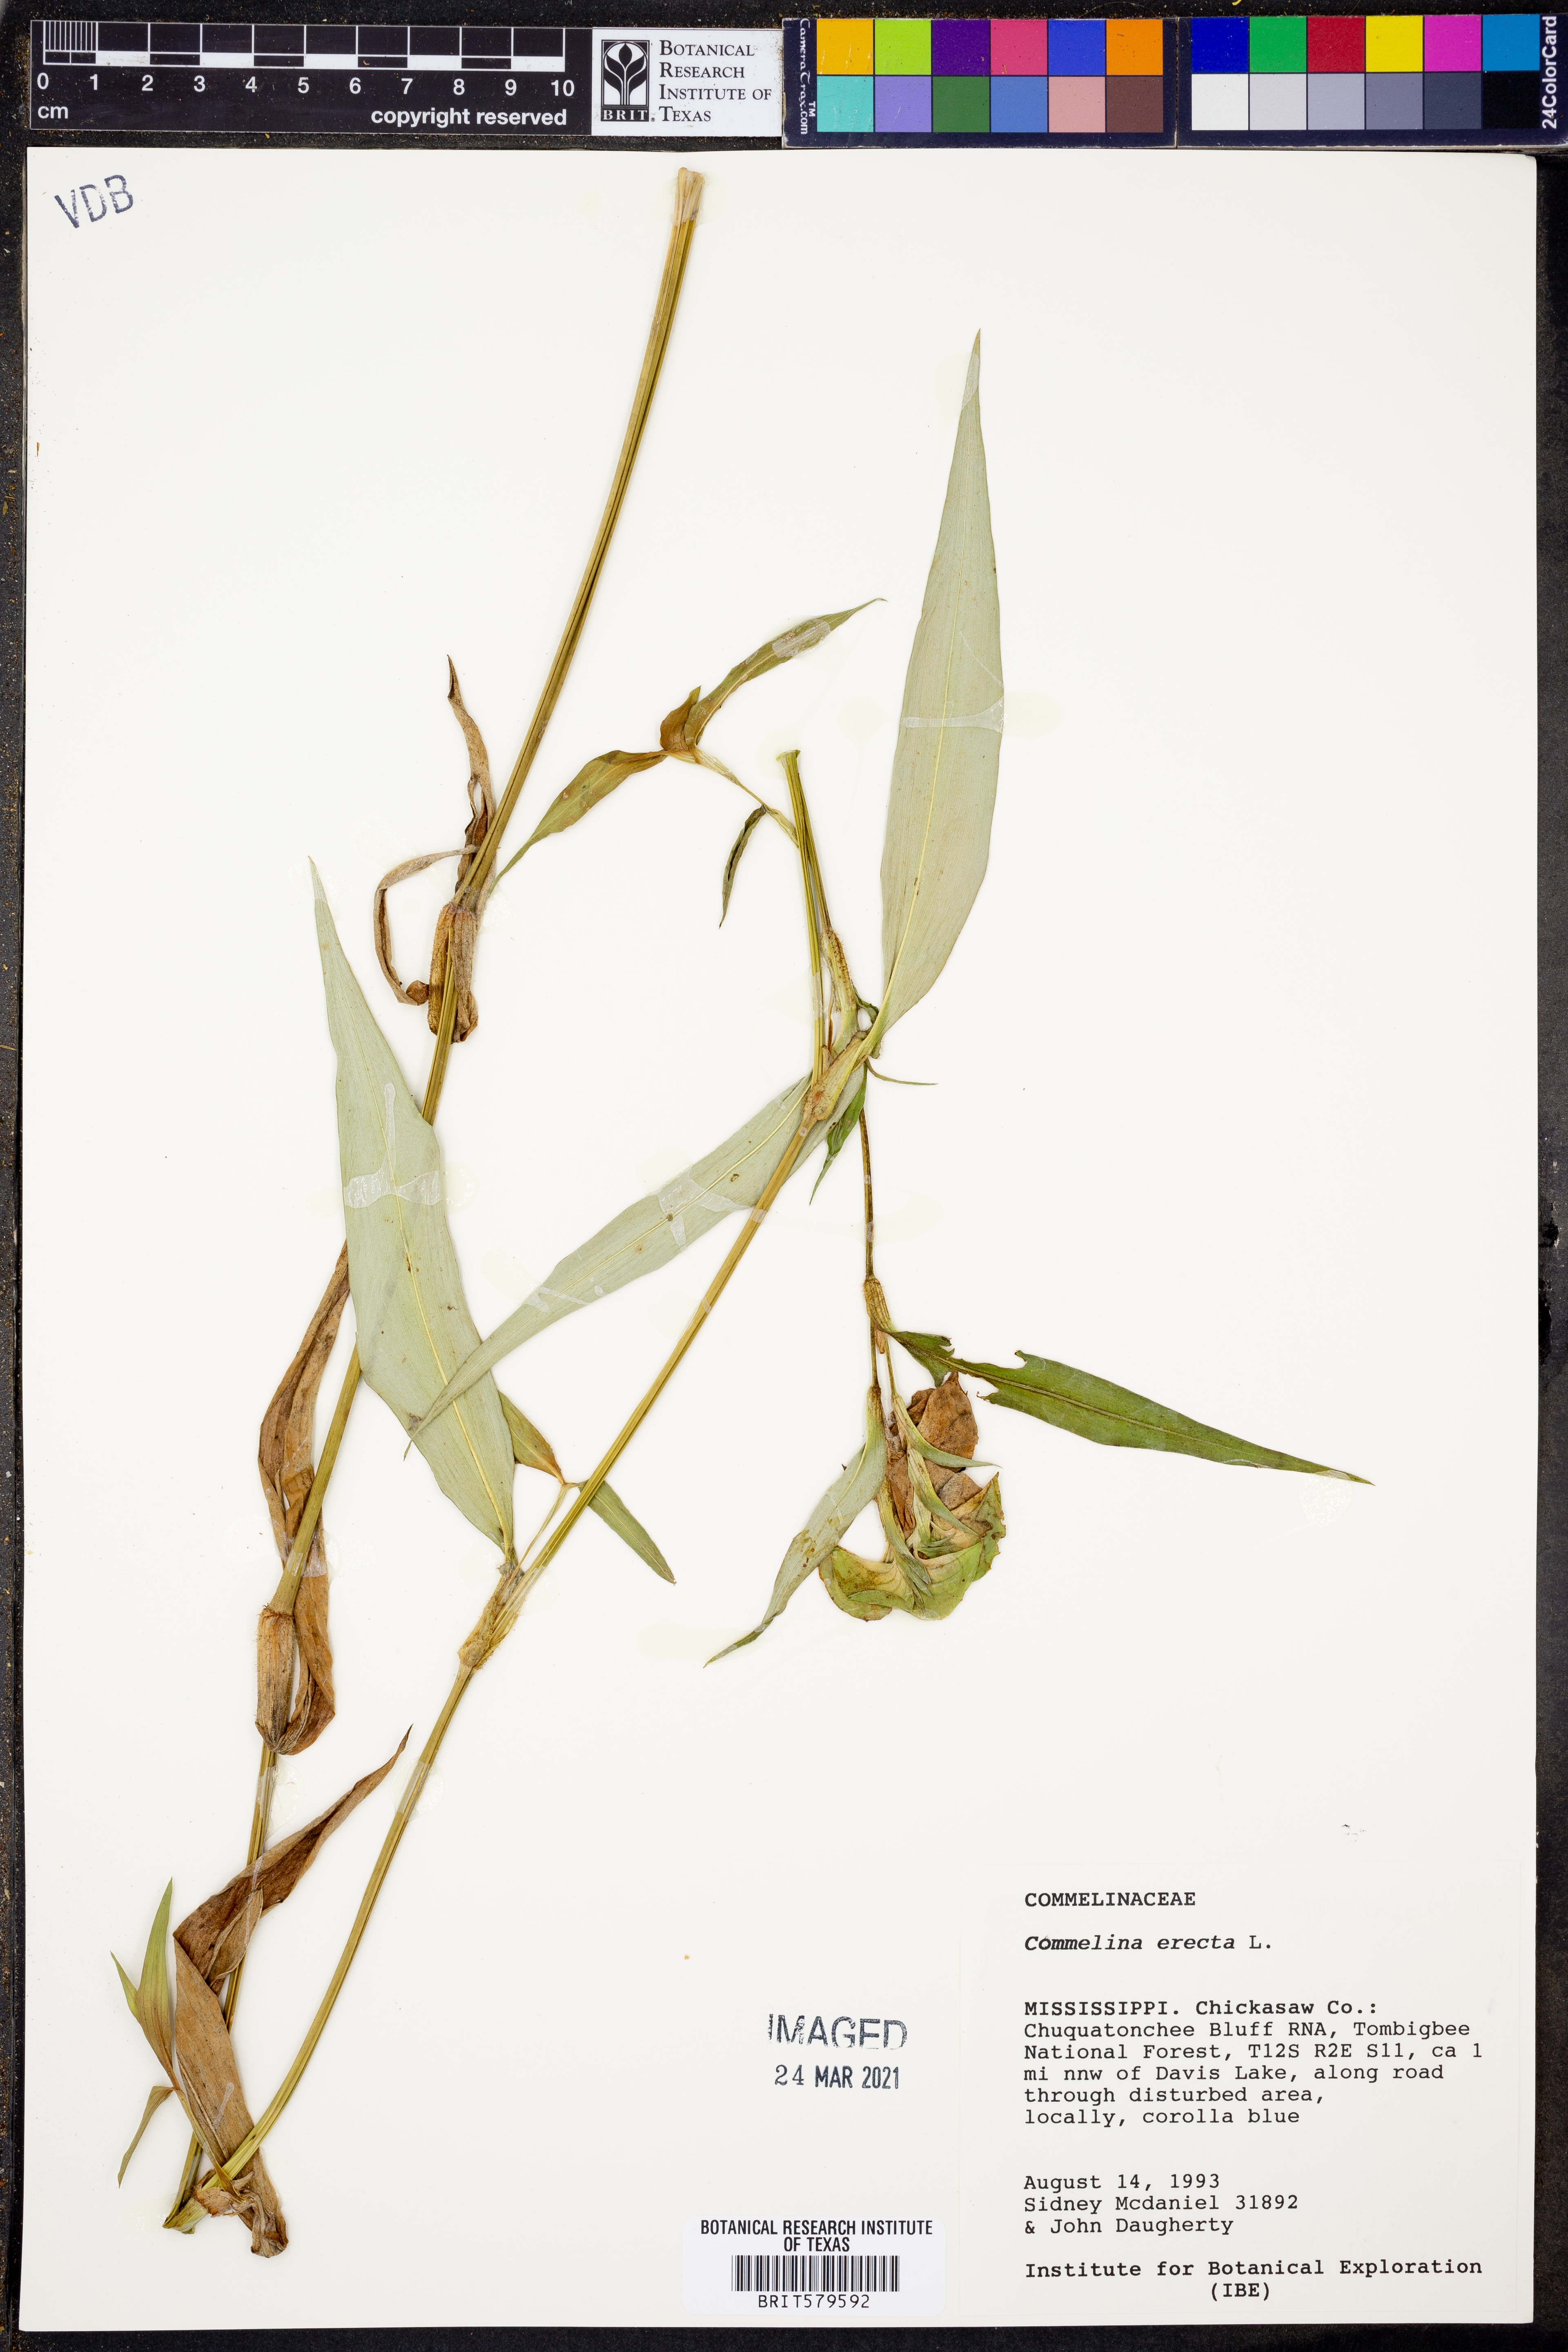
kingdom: Plantae
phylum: Tracheophyta
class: Liliopsida
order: Commelinales
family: Commelinaceae
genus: Commelina
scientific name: Commelina erecta
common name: Blousel blommetjie
